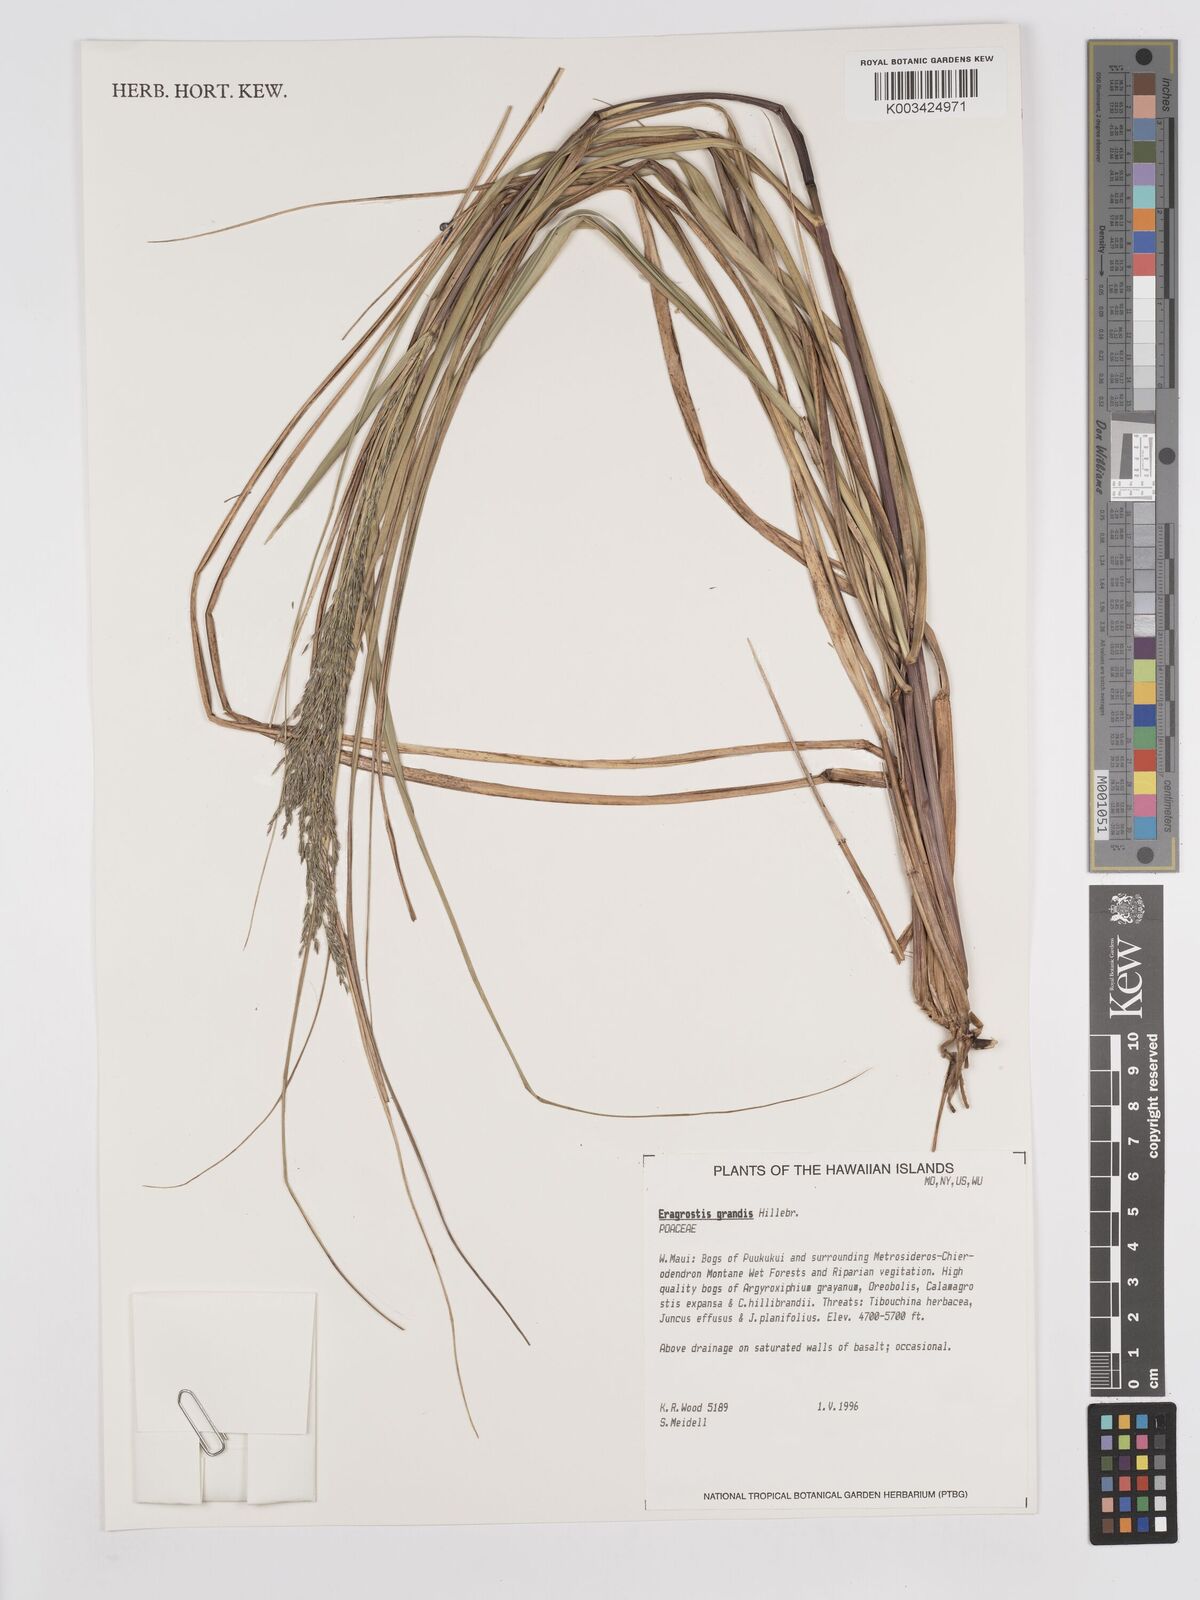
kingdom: Plantae
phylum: Tracheophyta
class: Liliopsida
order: Poales
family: Poaceae
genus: Eragrostis
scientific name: Eragrostis grandis
